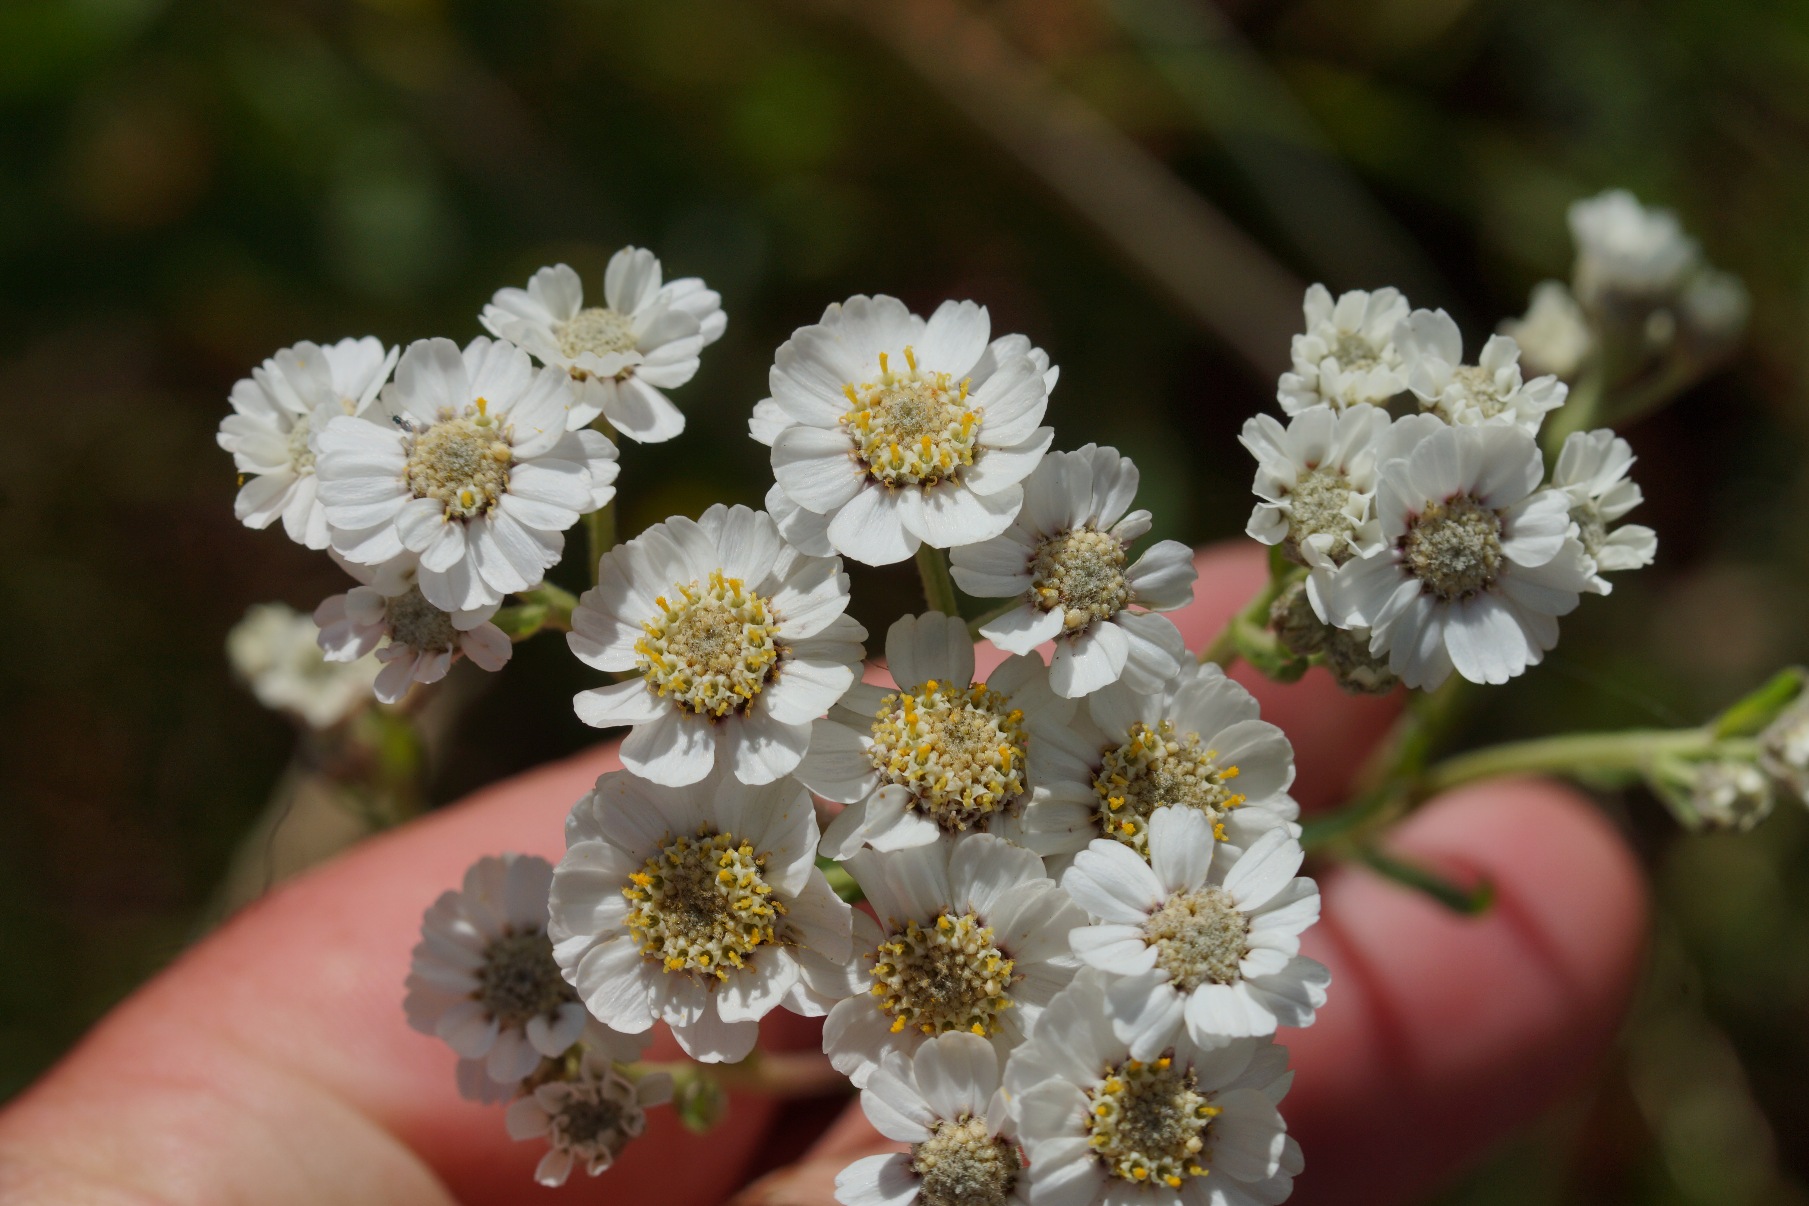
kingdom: Plantae
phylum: Tracheophyta
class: Magnoliopsida
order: Asterales
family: Asteraceae
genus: Achillea
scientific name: Achillea ptarmica
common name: Nyse-røllike
